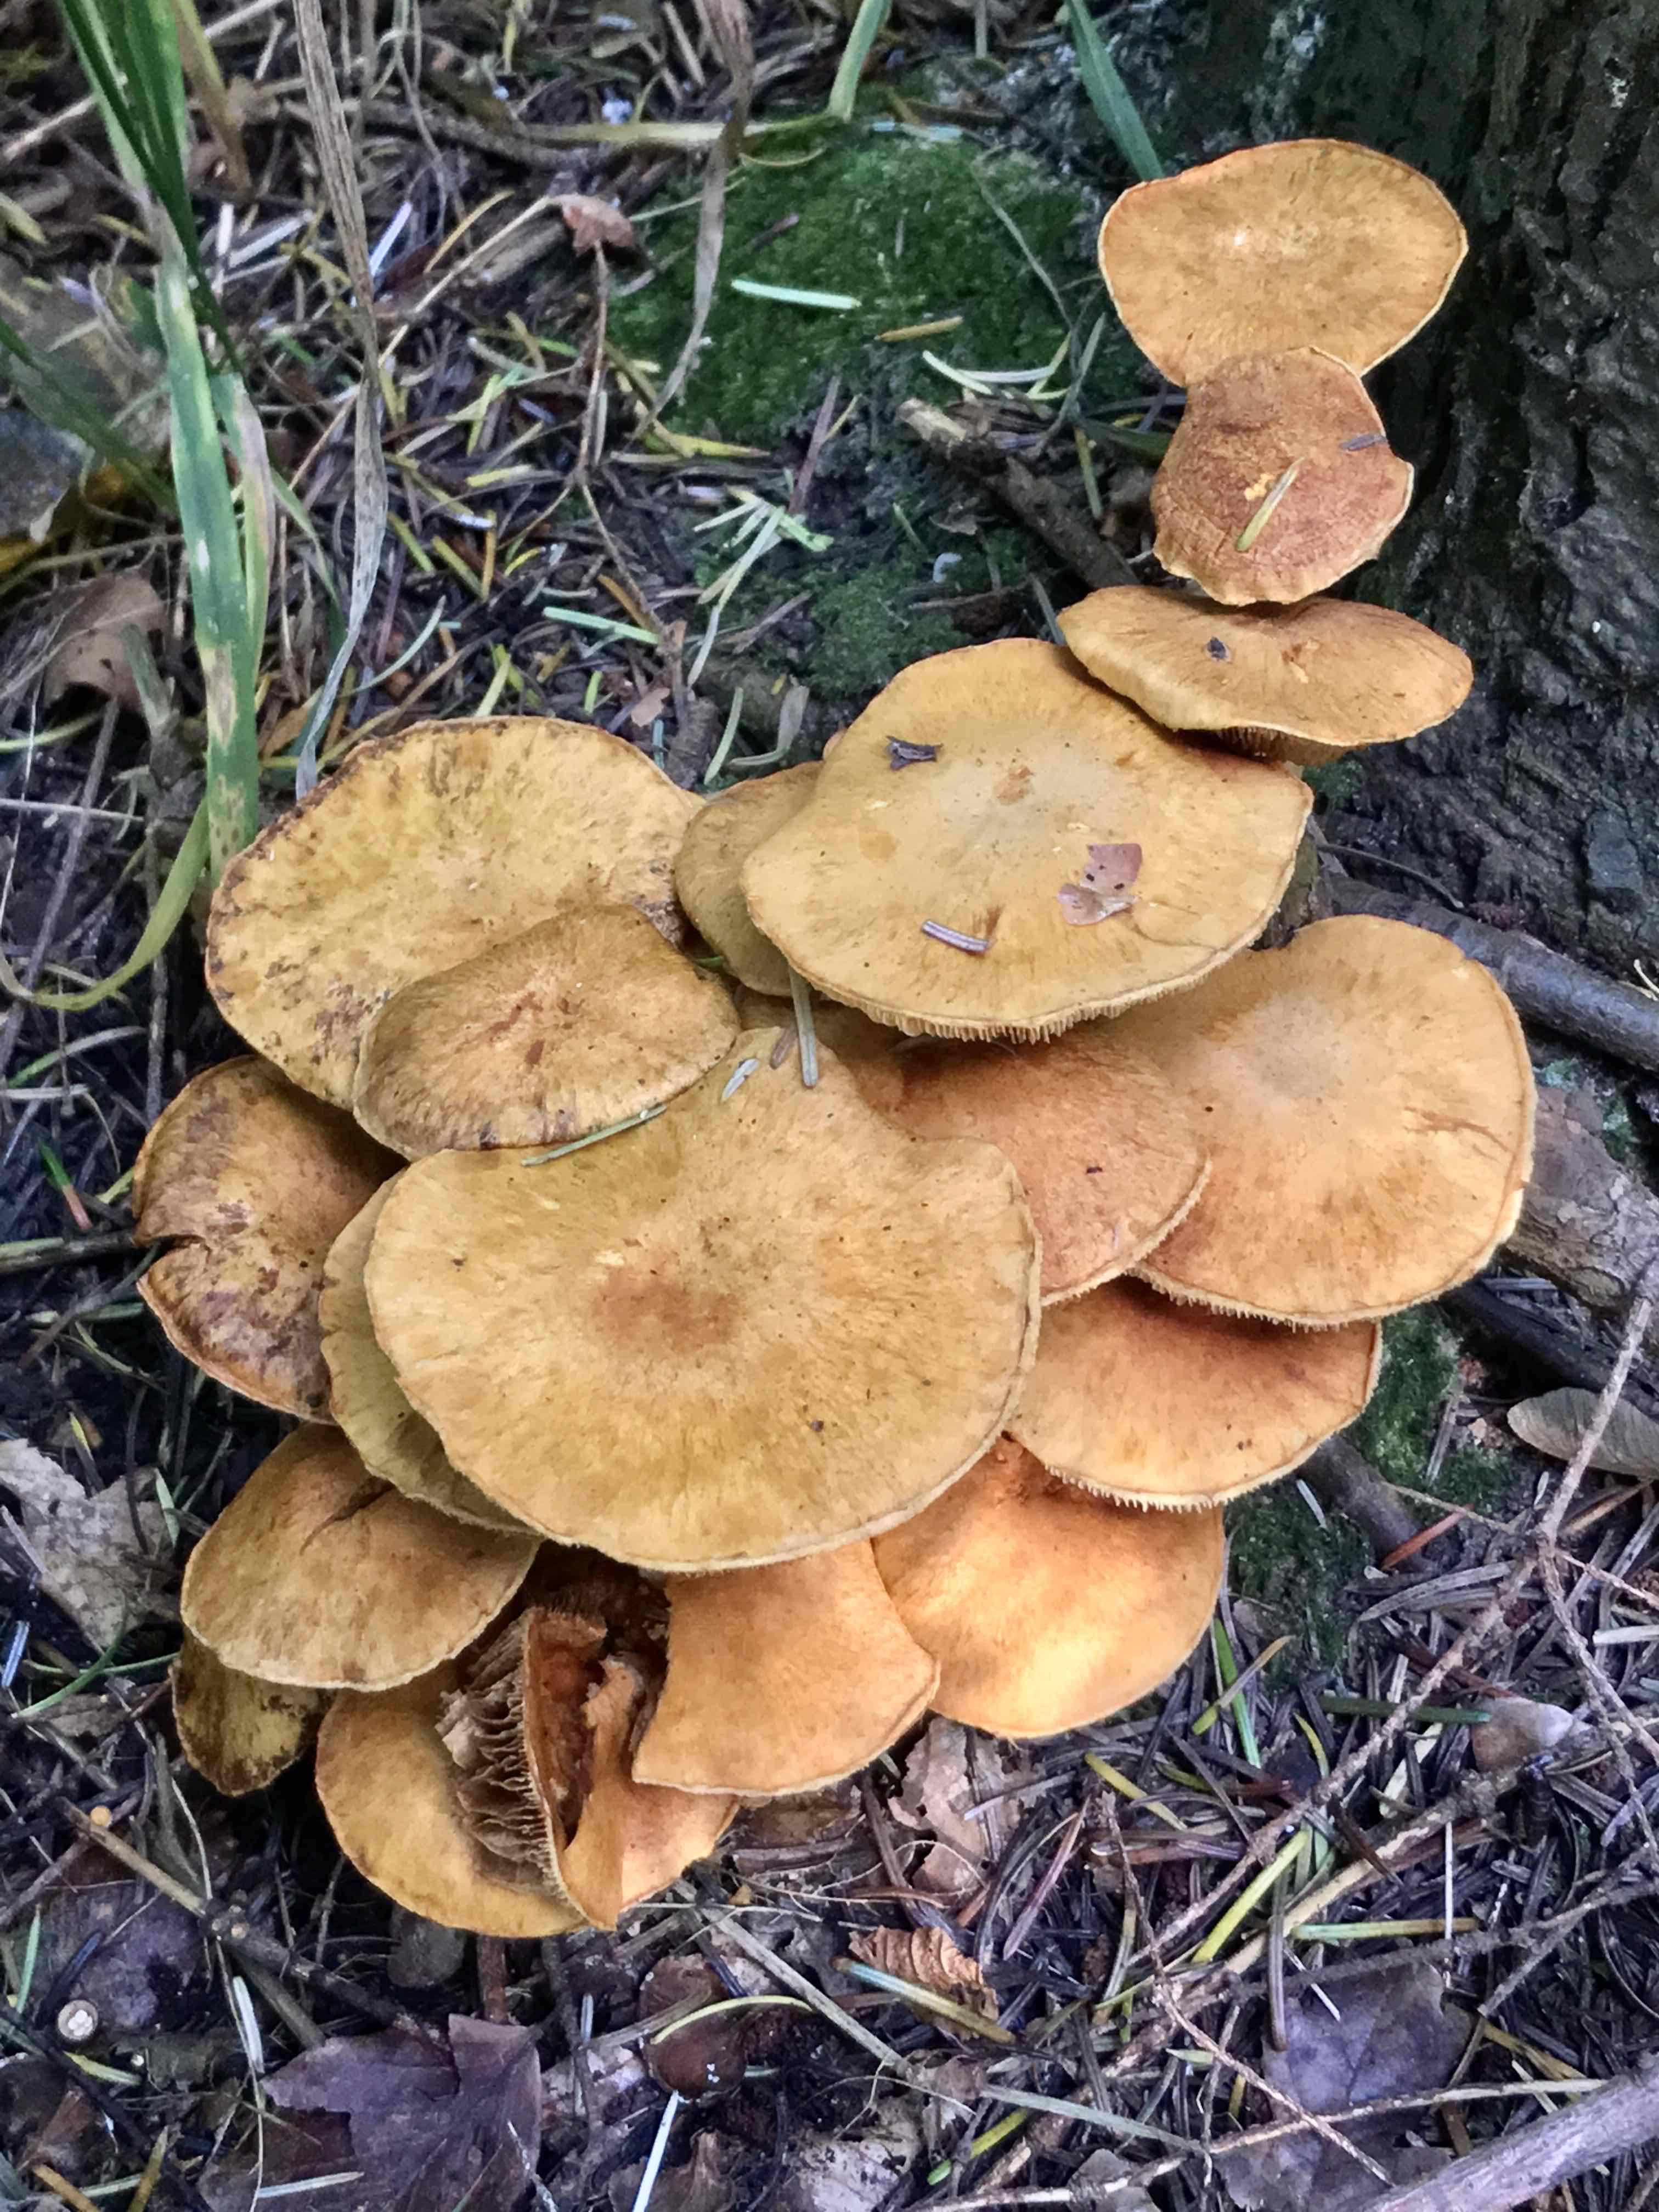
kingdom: Fungi
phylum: Basidiomycota
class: Agaricomycetes
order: Agaricales
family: Hymenogastraceae
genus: Gymnopilus
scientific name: Gymnopilus spectabilis
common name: fibret flammehat
